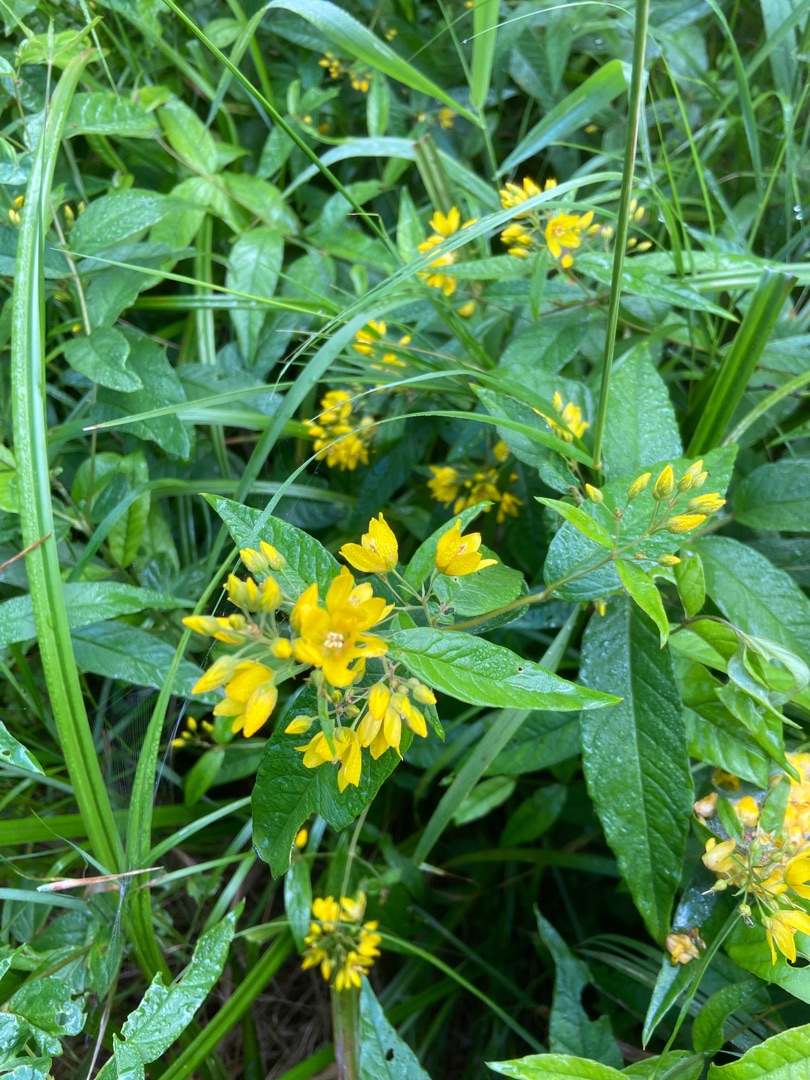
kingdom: Plantae
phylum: Tracheophyta
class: Magnoliopsida
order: Ericales
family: Primulaceae
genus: Lysimachia
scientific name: Lysimachia vulgaris
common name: Almindelig fredløs
